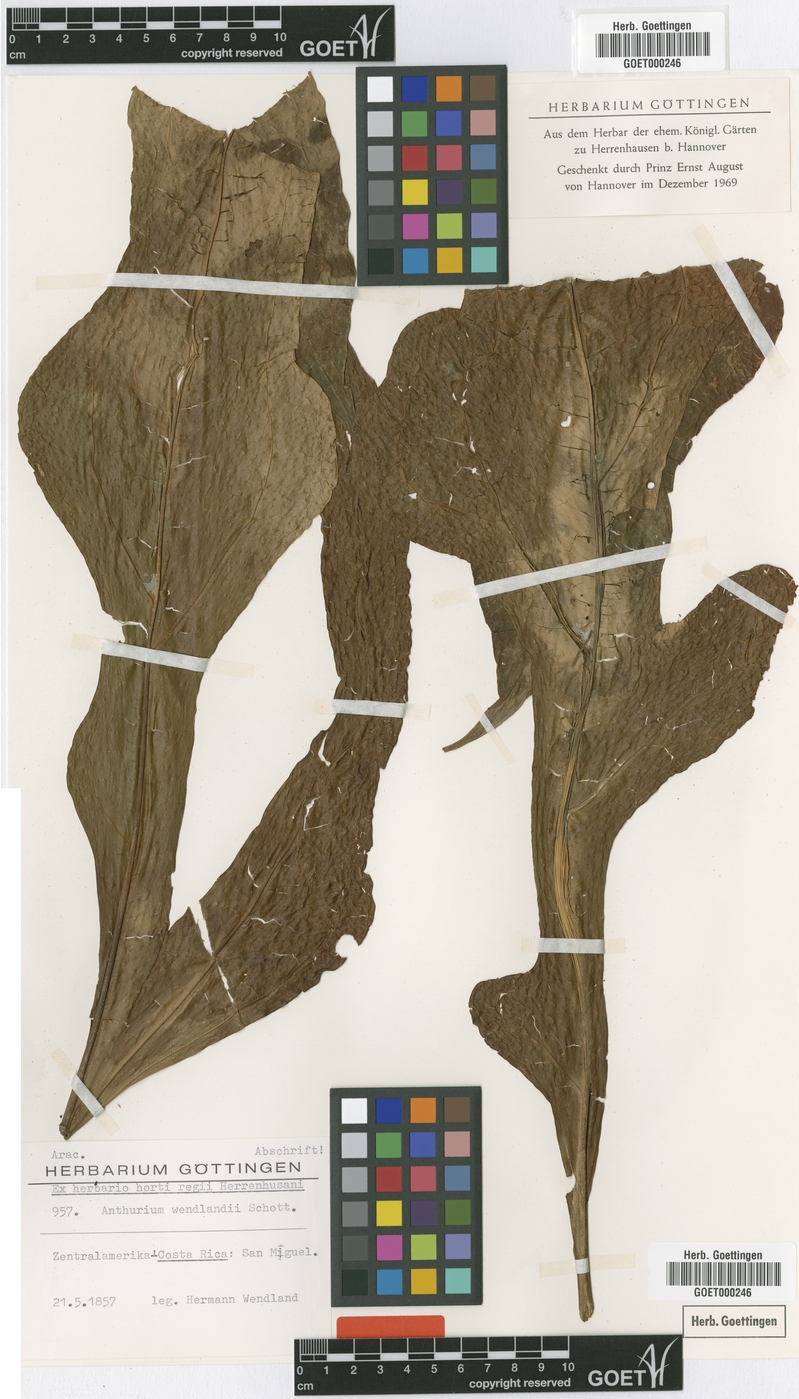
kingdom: Plantae
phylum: Tracheophyta
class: Liliopsida
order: Alismatales
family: Araceae
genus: Anthurium
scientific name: Anthurium clavigerum
